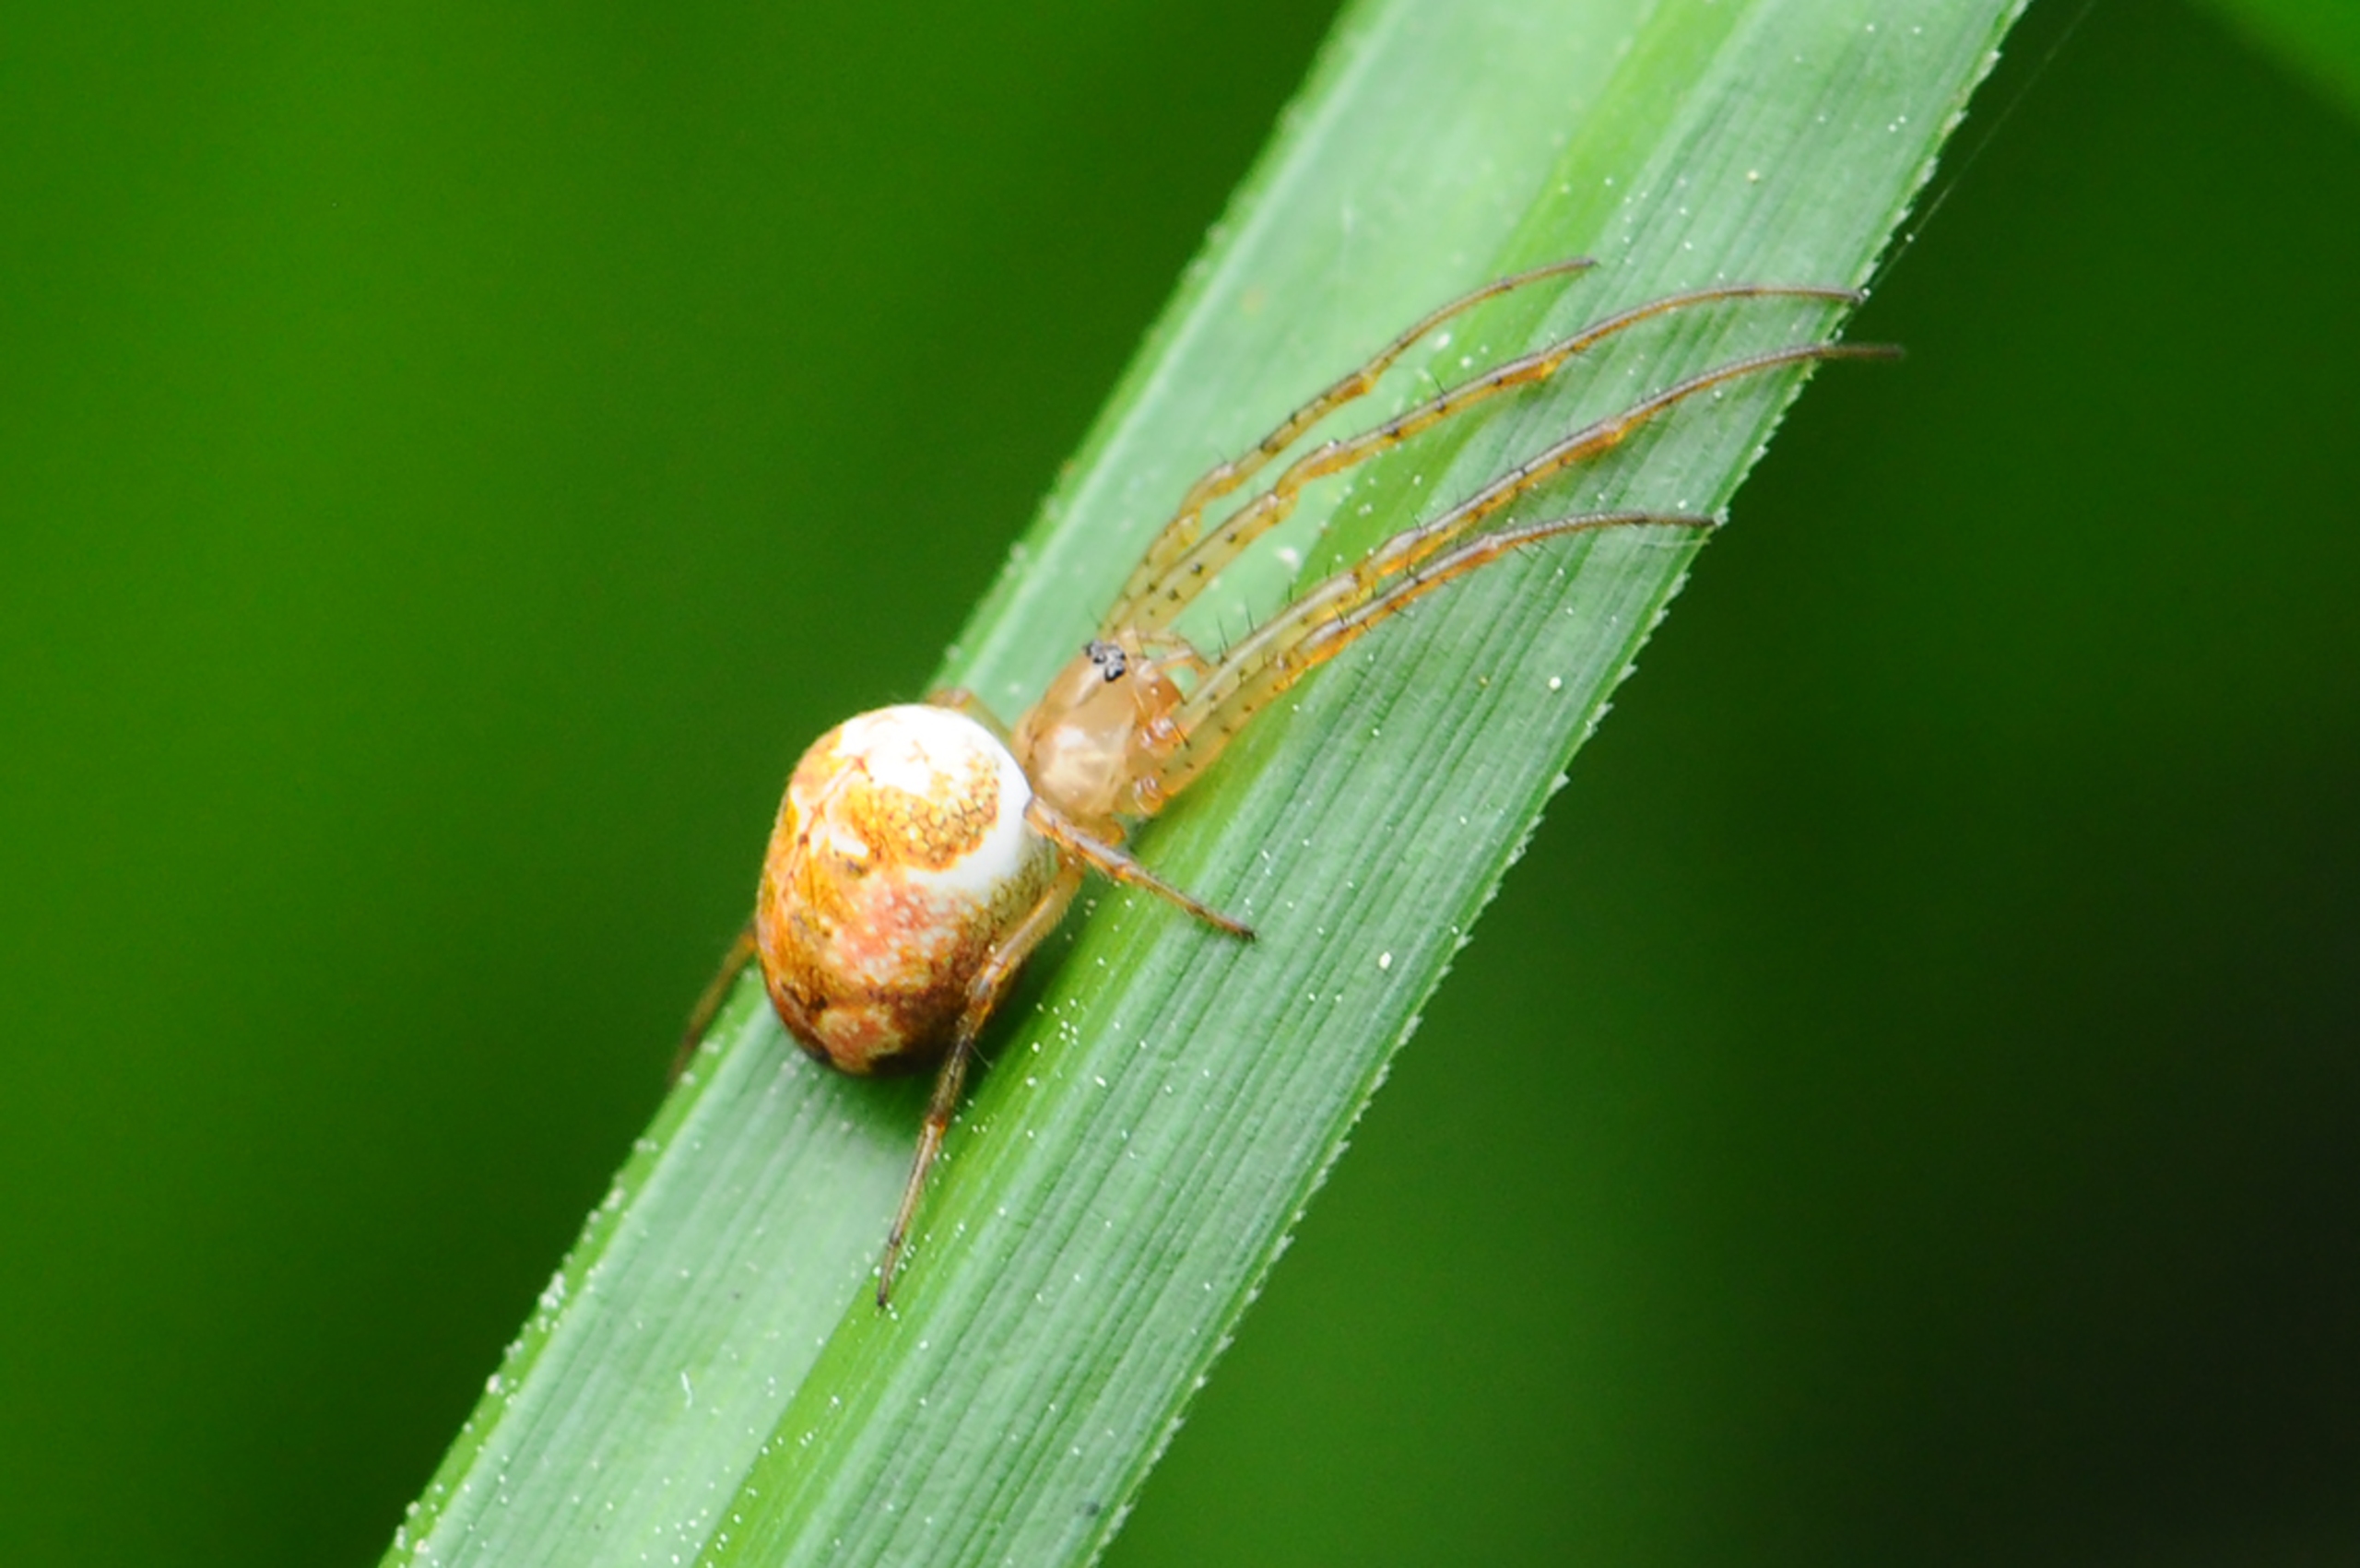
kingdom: Animalia
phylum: Arthropoda
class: Arachnida
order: Araneae
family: Tetragnathidae
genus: Metellina
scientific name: Metellina
